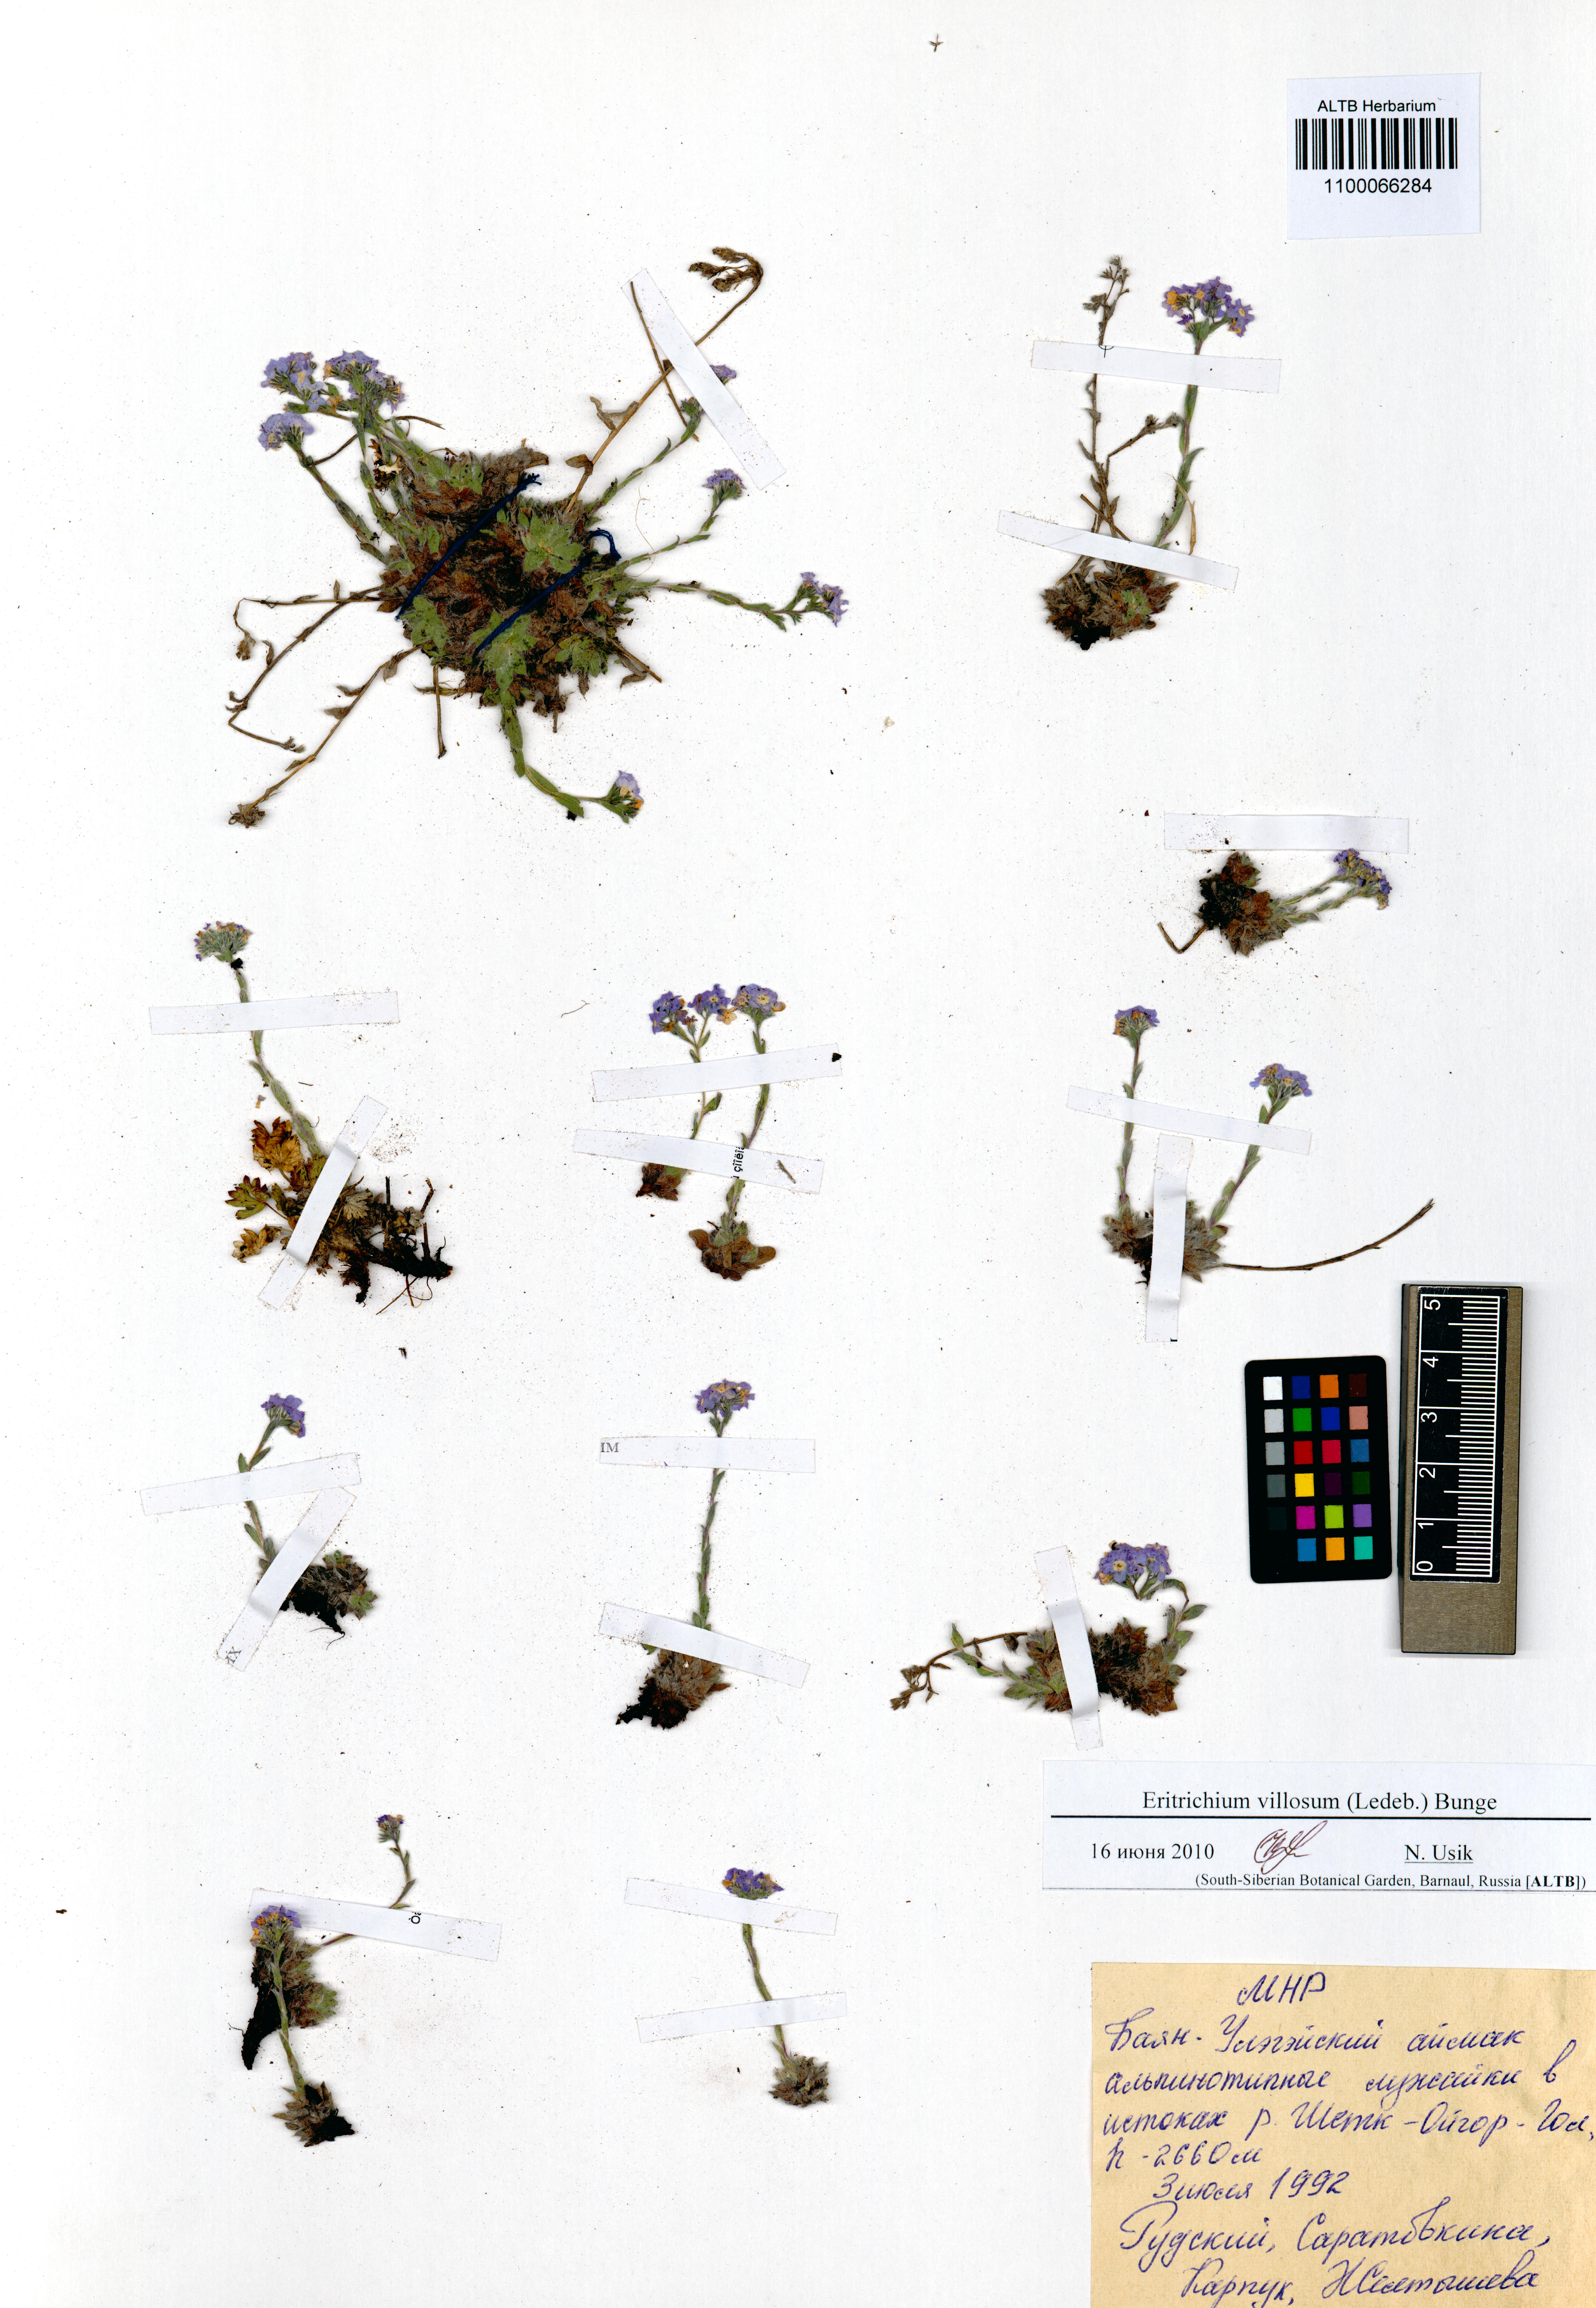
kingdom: Plantae
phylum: Tracheophyta
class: Magnoliopsida
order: Boraginales
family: Boraginaceae
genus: Eritrichium
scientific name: Eritrichium villosum
